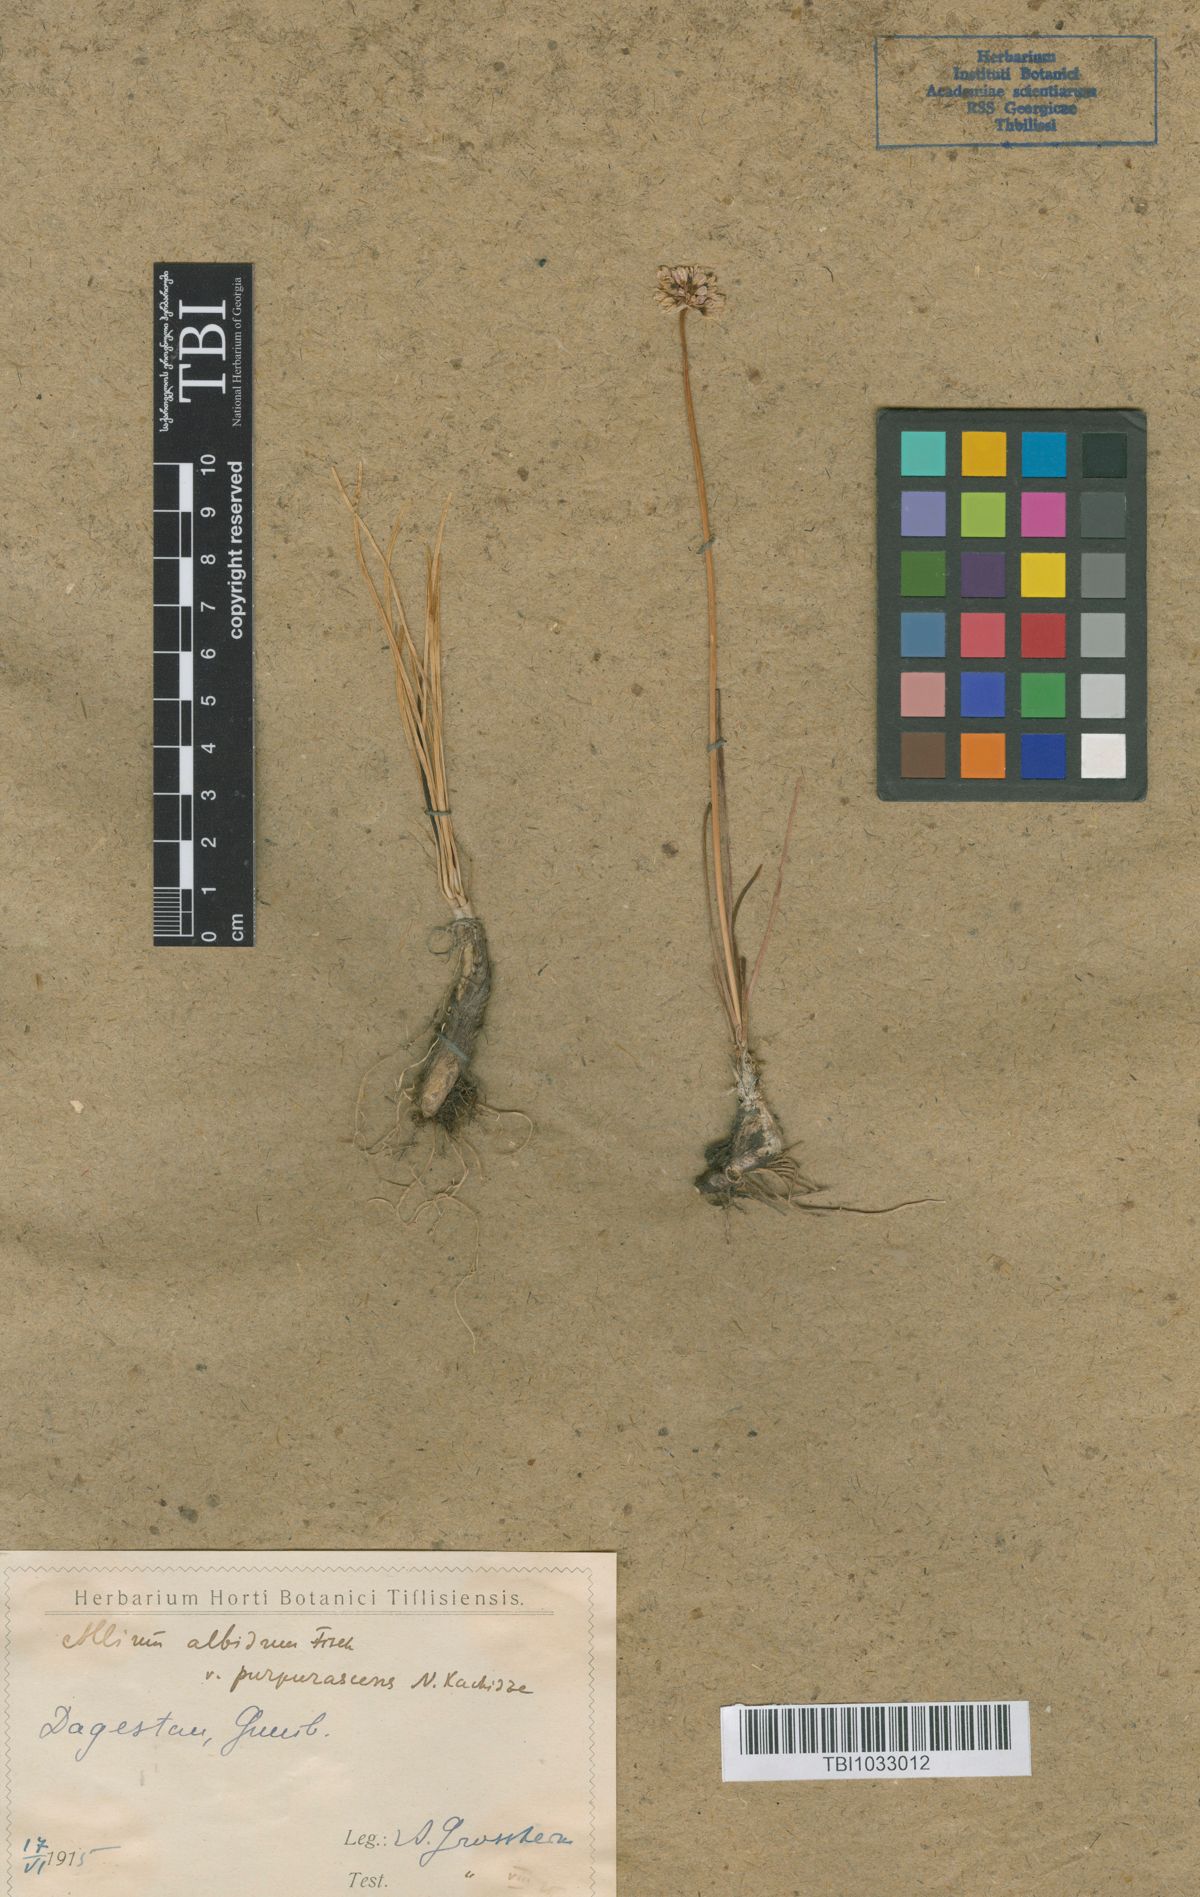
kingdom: Plantae
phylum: Tracheophyta
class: Liliopsida
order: Asparagales
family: Amaryllidaceae
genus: Allium
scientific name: Allium denudatum
